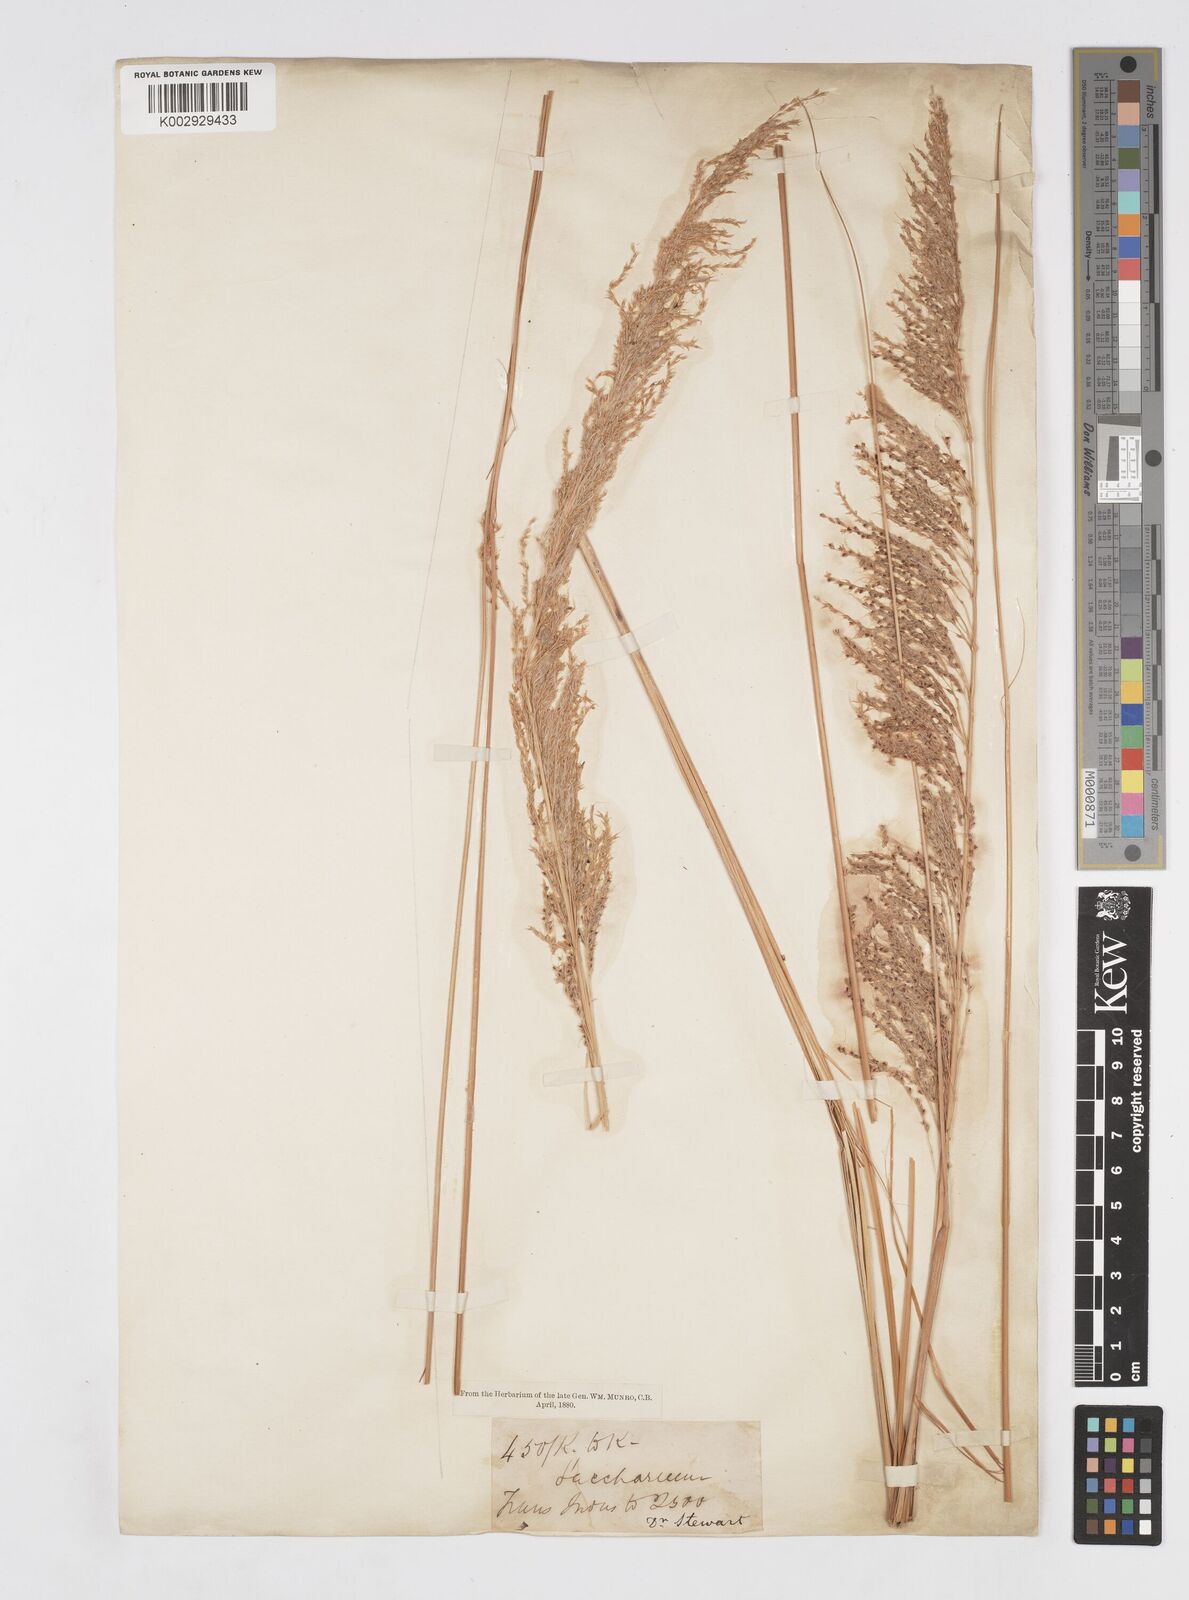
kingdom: Plantae
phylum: Tracheophyta
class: Liliopsida
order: Poales
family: Poaceae
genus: Saccharum
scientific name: Saccharum
